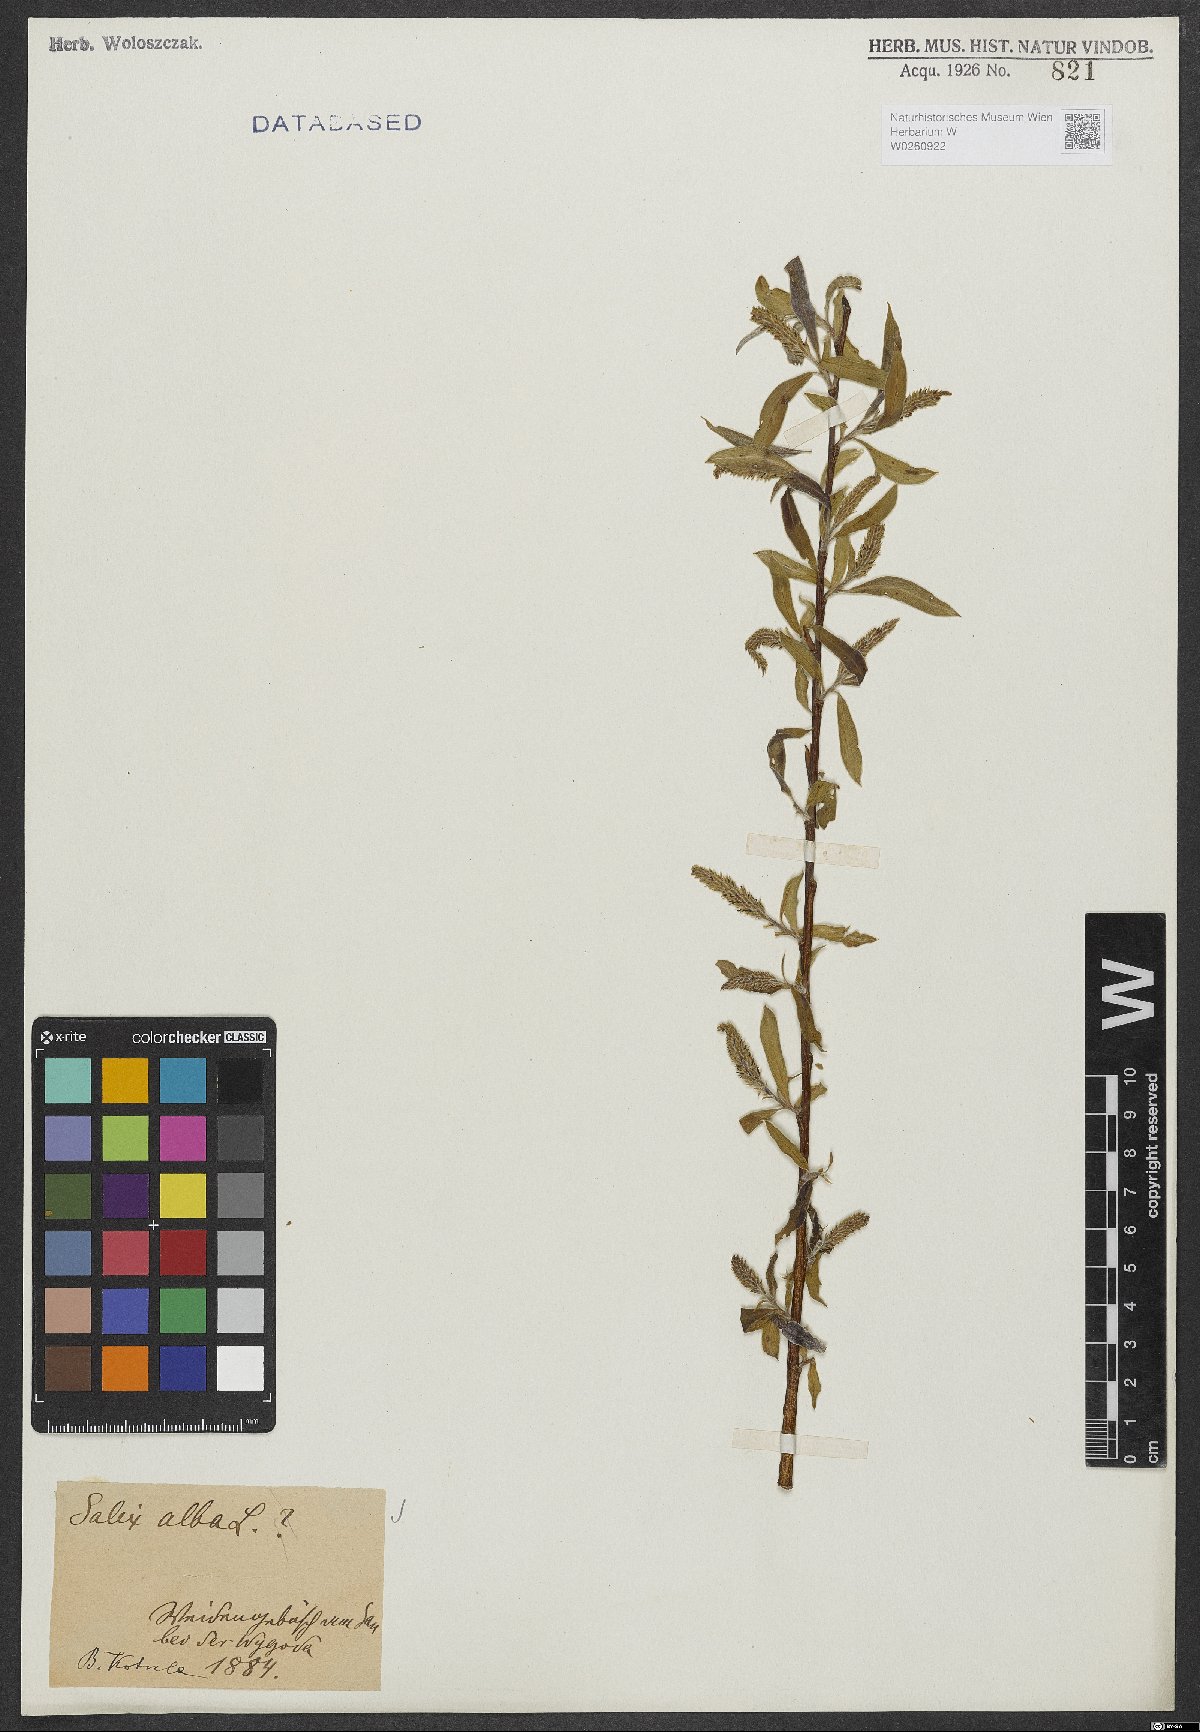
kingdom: Plantae
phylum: Tracheophyta
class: Magnoliopsida
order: Malpighiales
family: Salicaceae
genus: Salix
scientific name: Salix alba
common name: White willow
